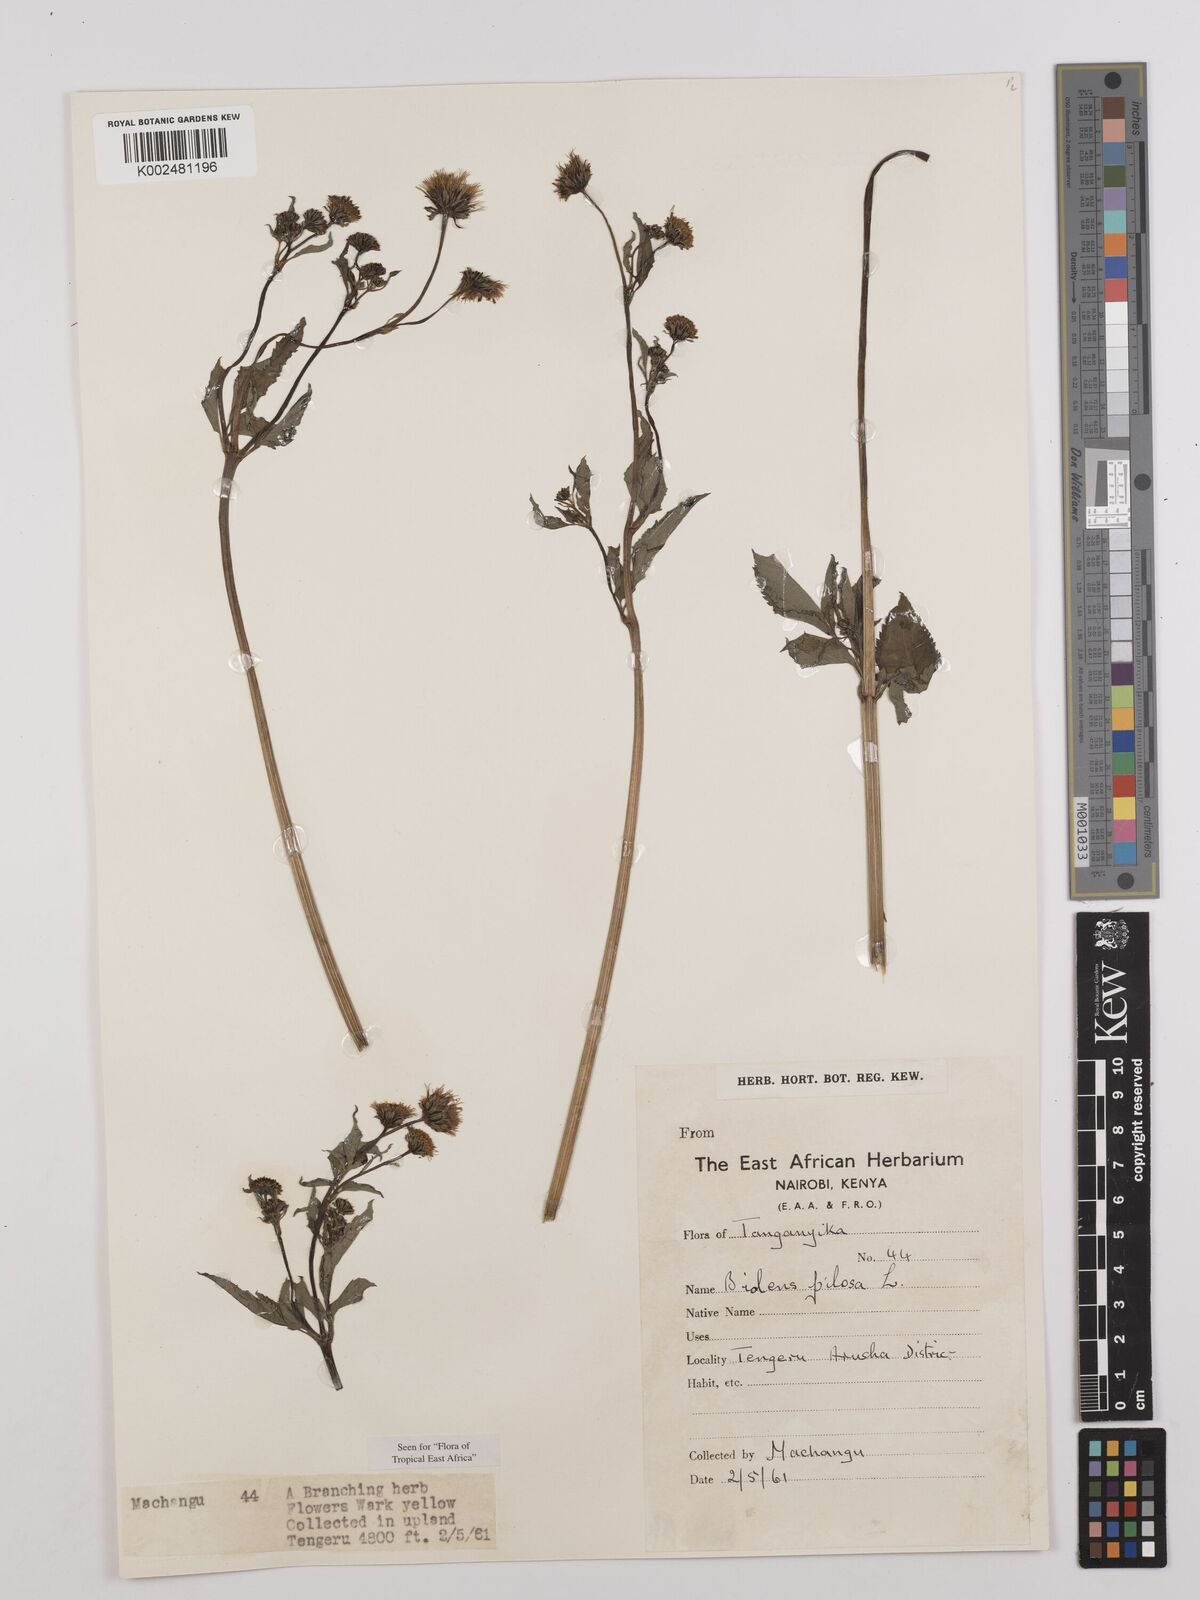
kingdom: Plantae
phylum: Tracheophyta
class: Magnoliopsida
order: Asterales
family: Asteraceae
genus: Bidens
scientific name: Bidens pilosa
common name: Black-jack
